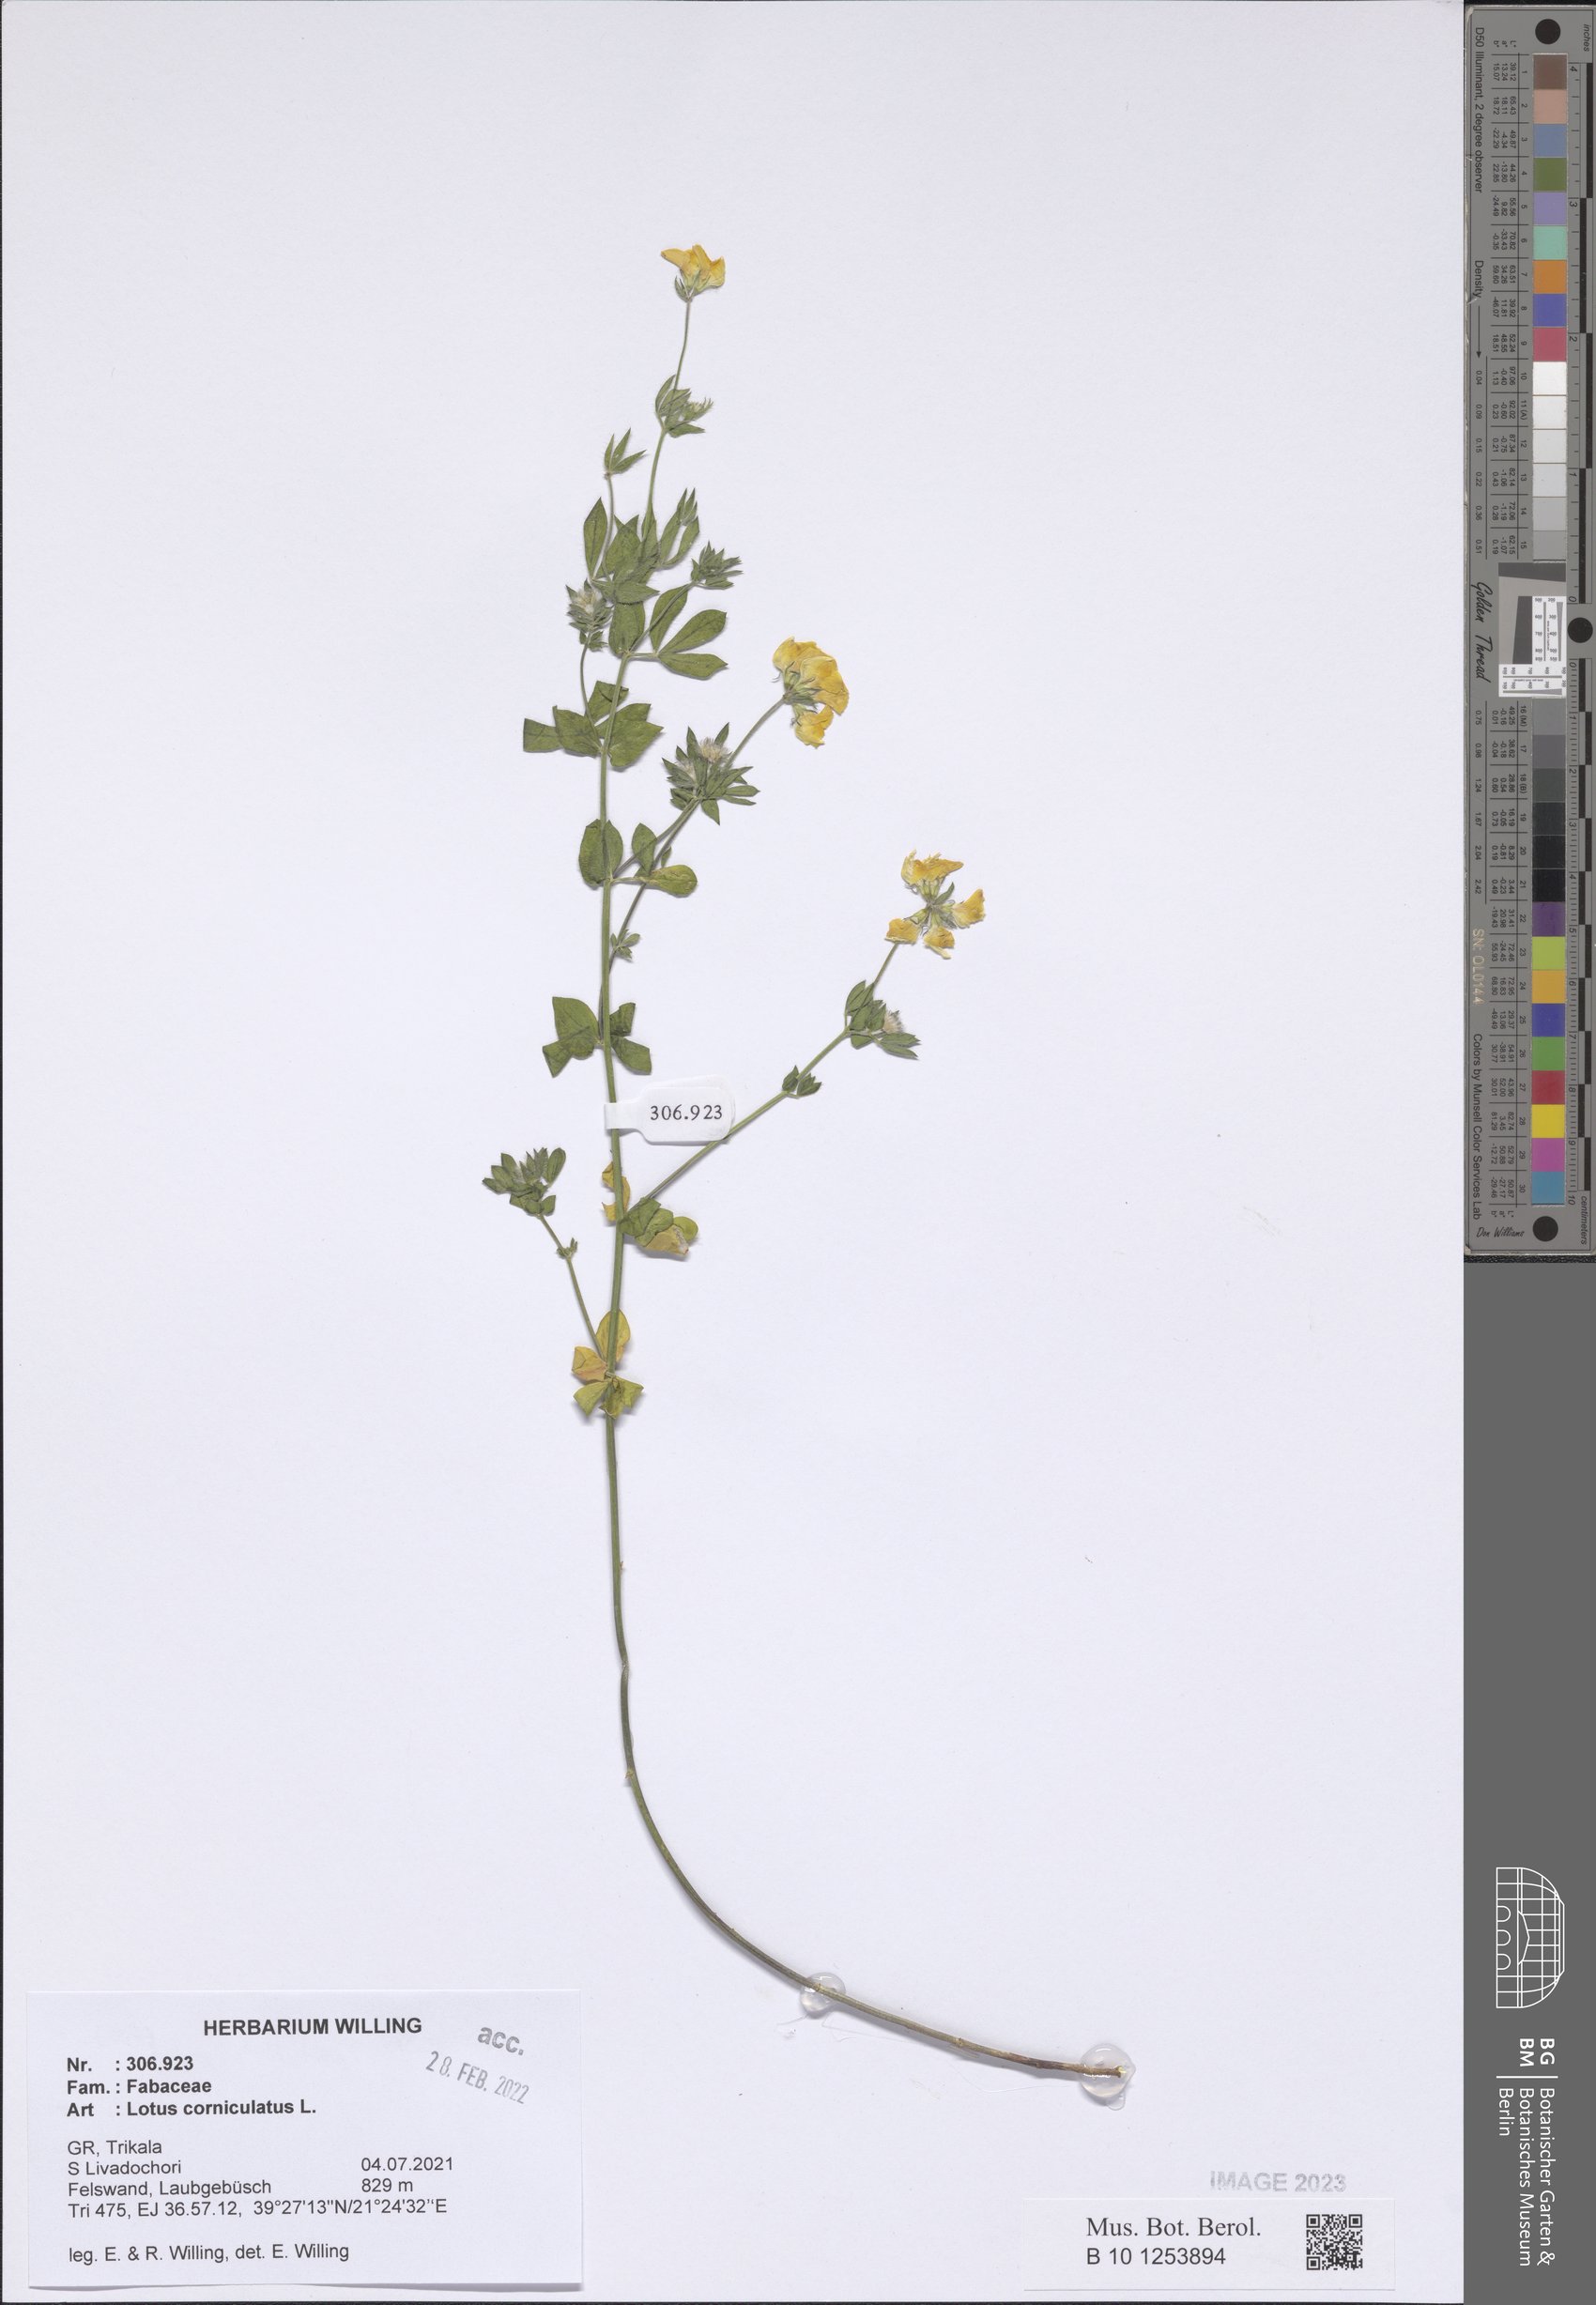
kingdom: Plantae
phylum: Tracheophyta
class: Magnoliopsida
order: Fabales
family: Fabaceae
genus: Lotus
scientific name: Lotus corniculatus
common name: Common bird's-foot-trefoil
